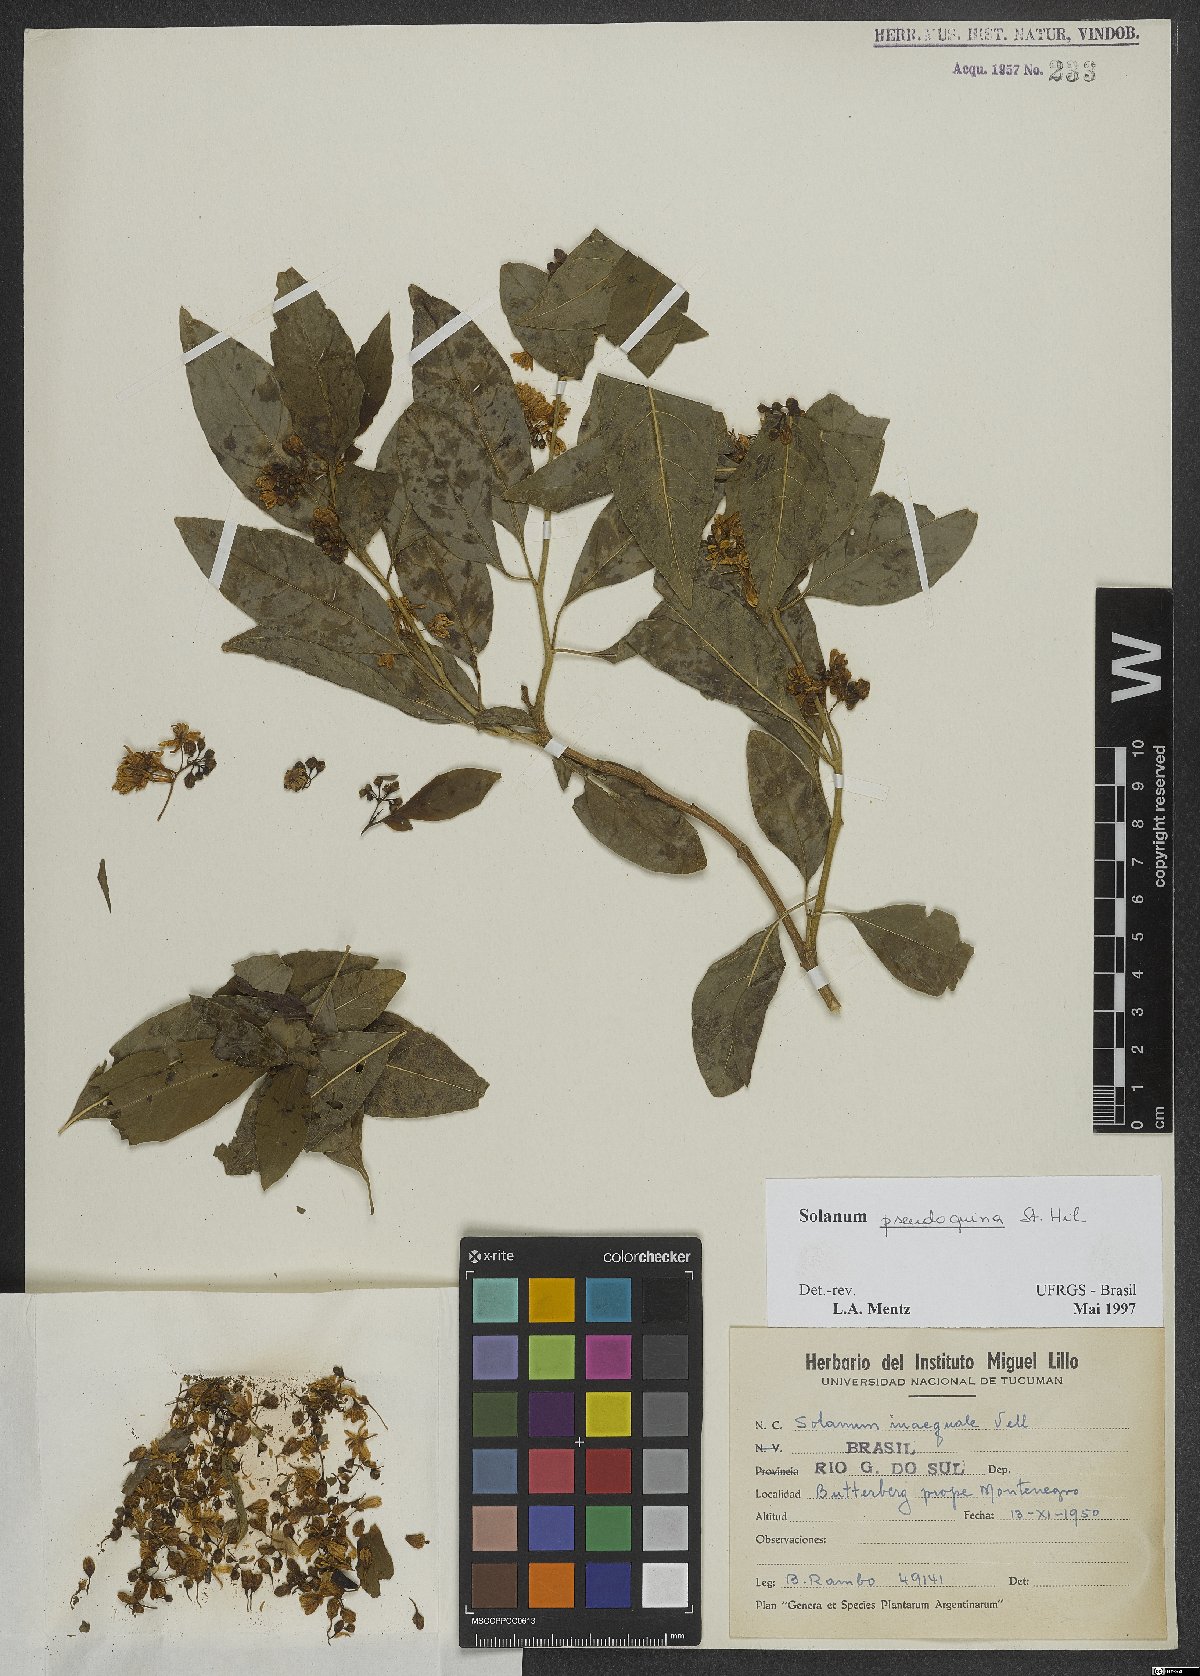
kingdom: Plantae
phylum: Tracheophyta
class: Magnoliopsida
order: Solanales
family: Solanaceae
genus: Solanum
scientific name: Solanum pseudoquina
